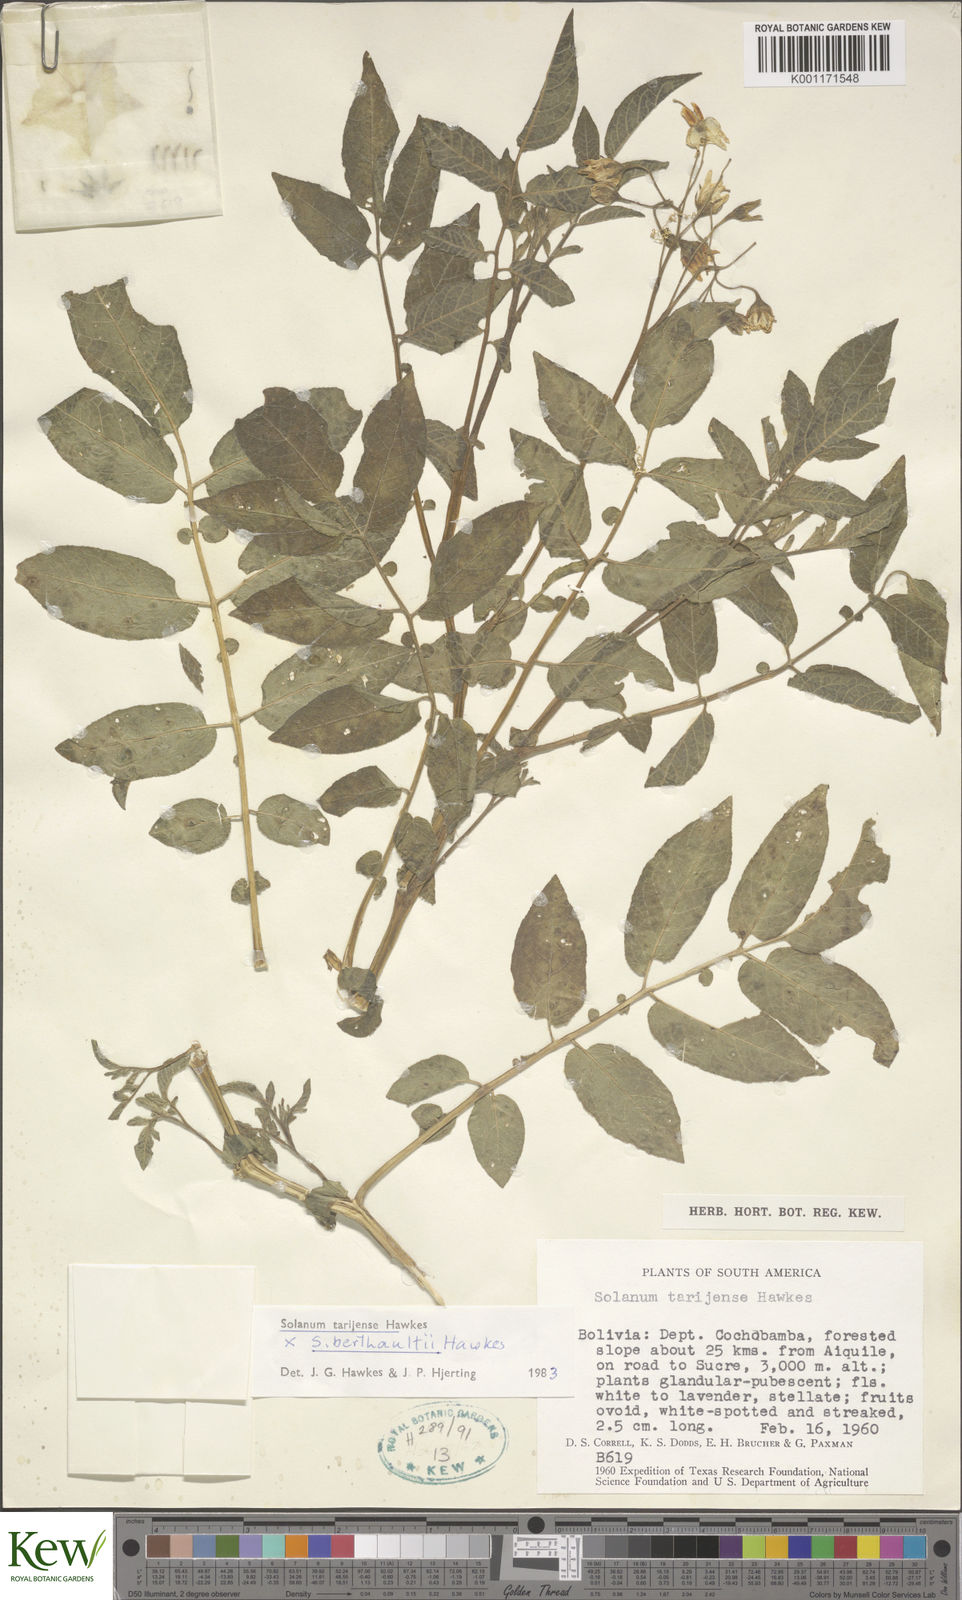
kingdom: Plantae
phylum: Tracheophyta
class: Magnoliopsida
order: Solanales
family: Solanaceae
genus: Solanum
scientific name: Solanum tarijense
